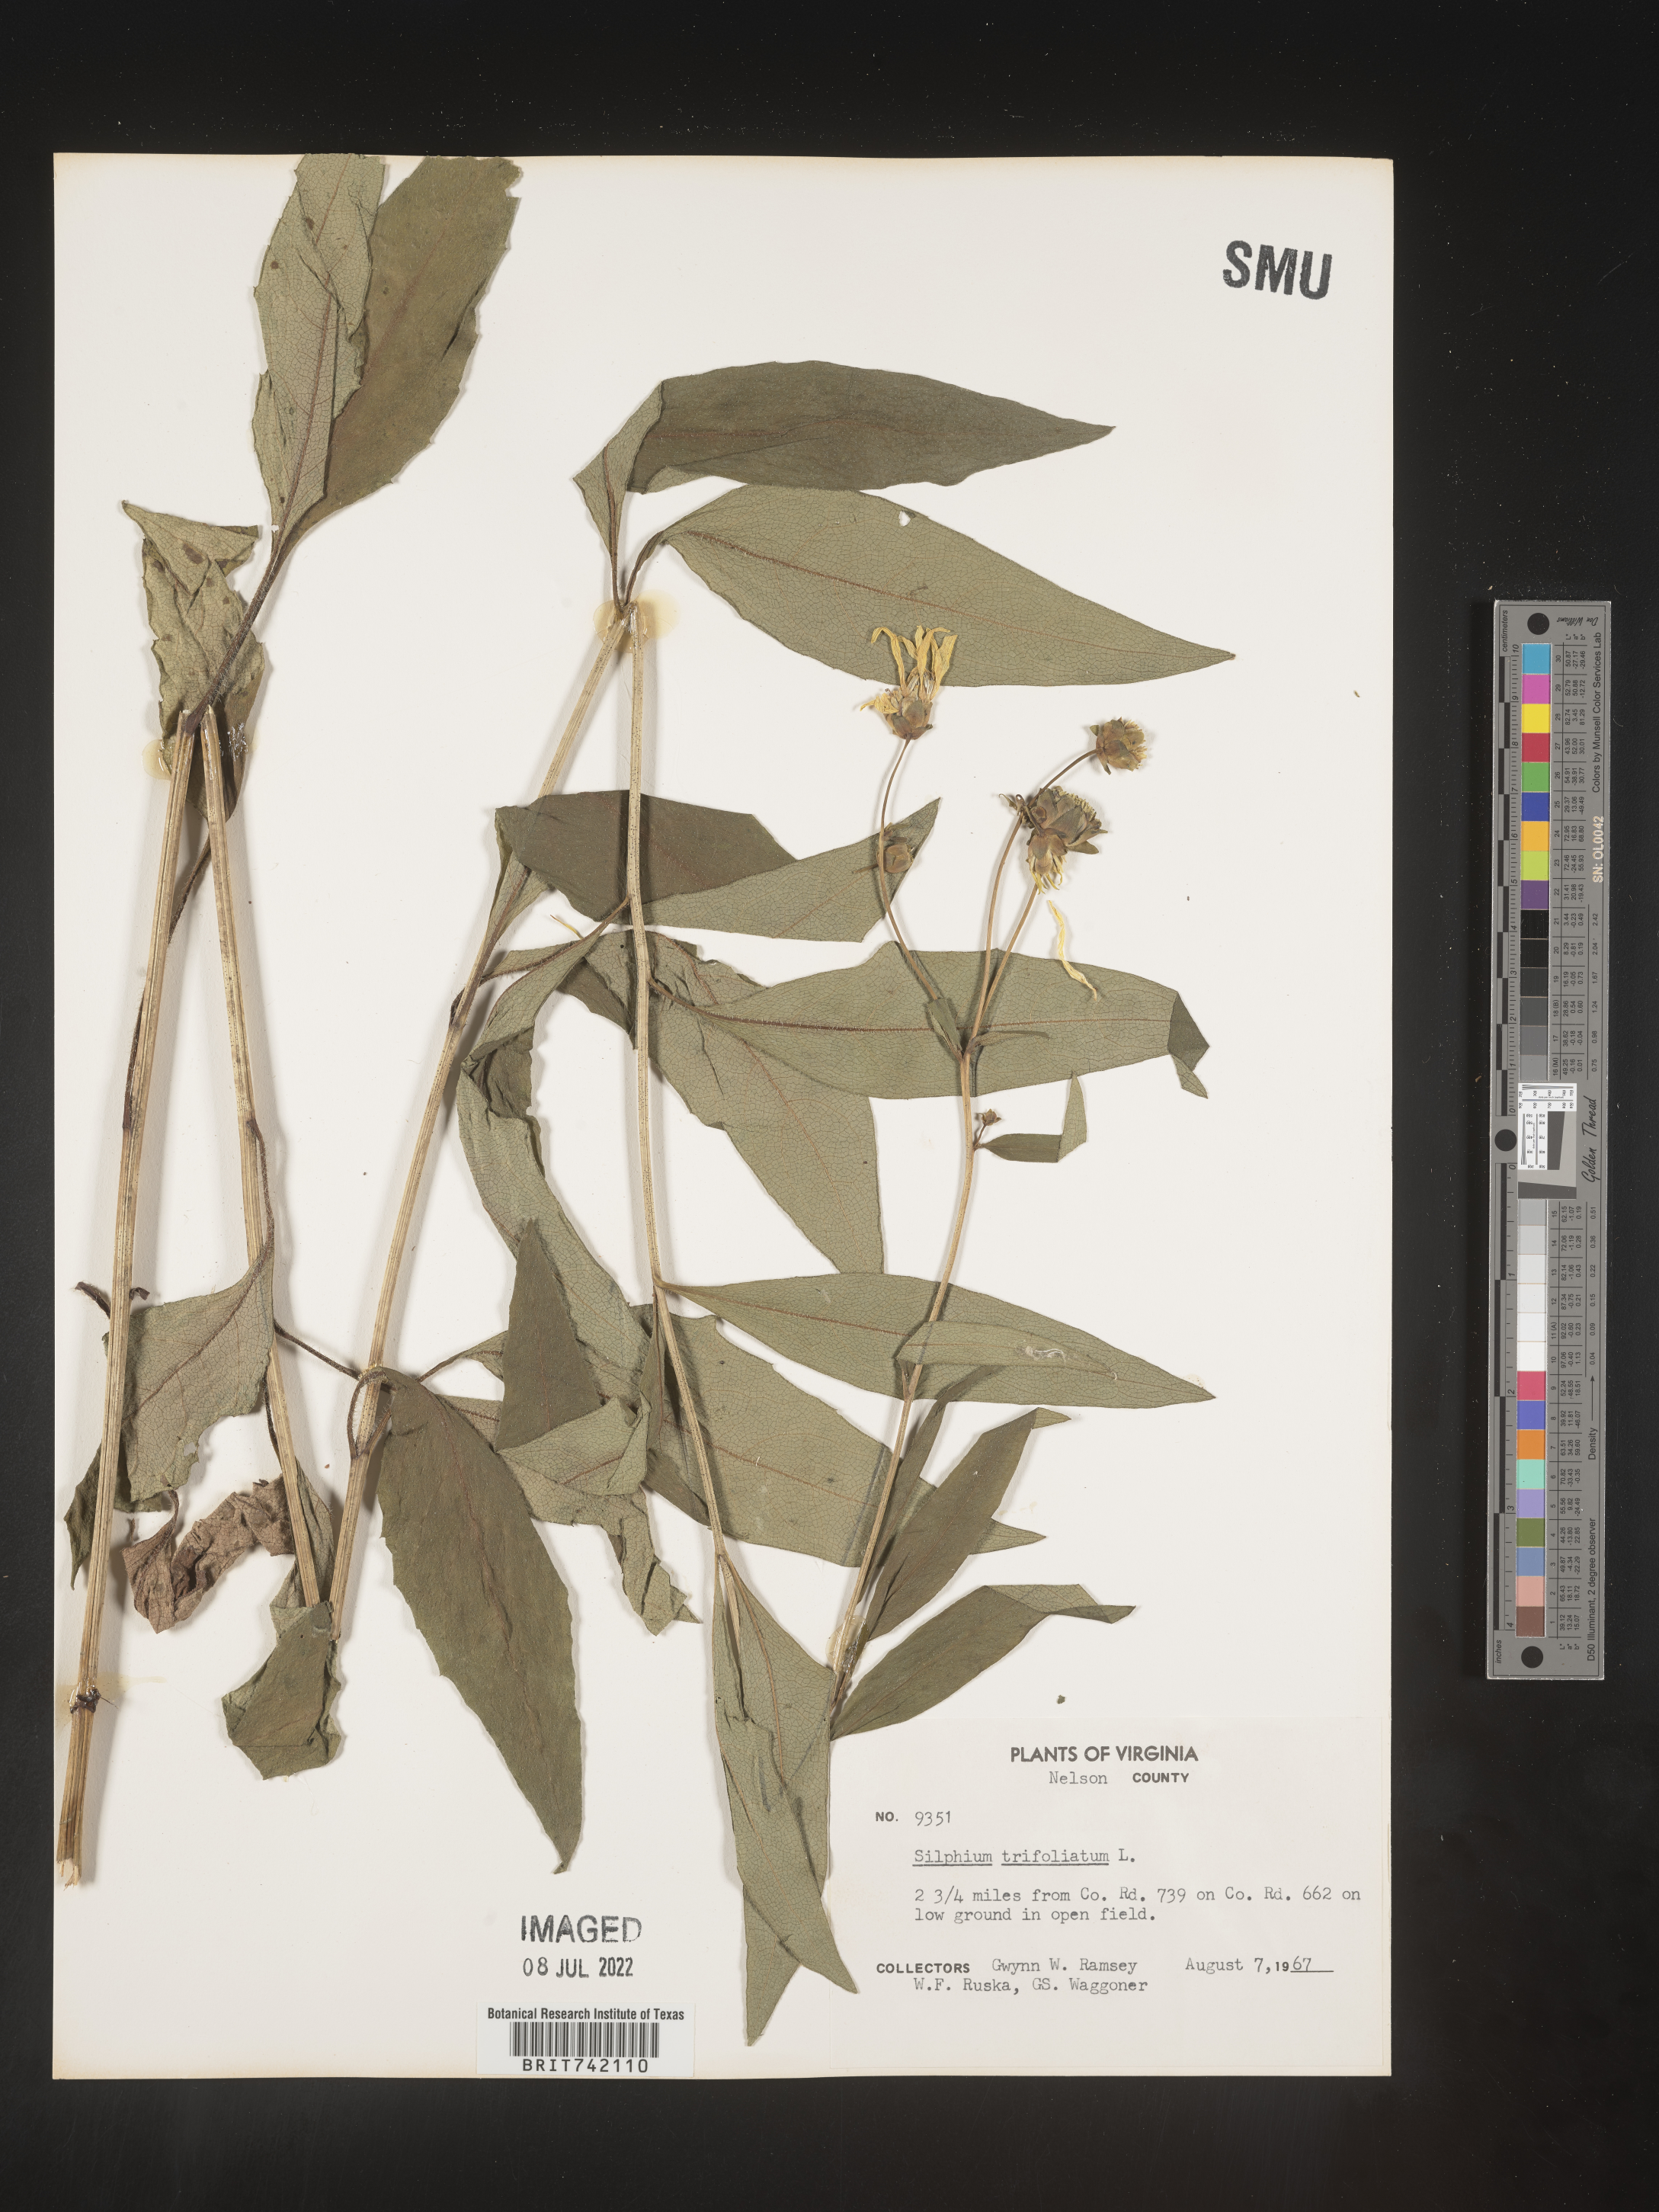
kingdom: Plantae
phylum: Tracheophyta
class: Magnoliopsida
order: Asterales
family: Asteraceae
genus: Silphium
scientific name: Silphium glabrum
